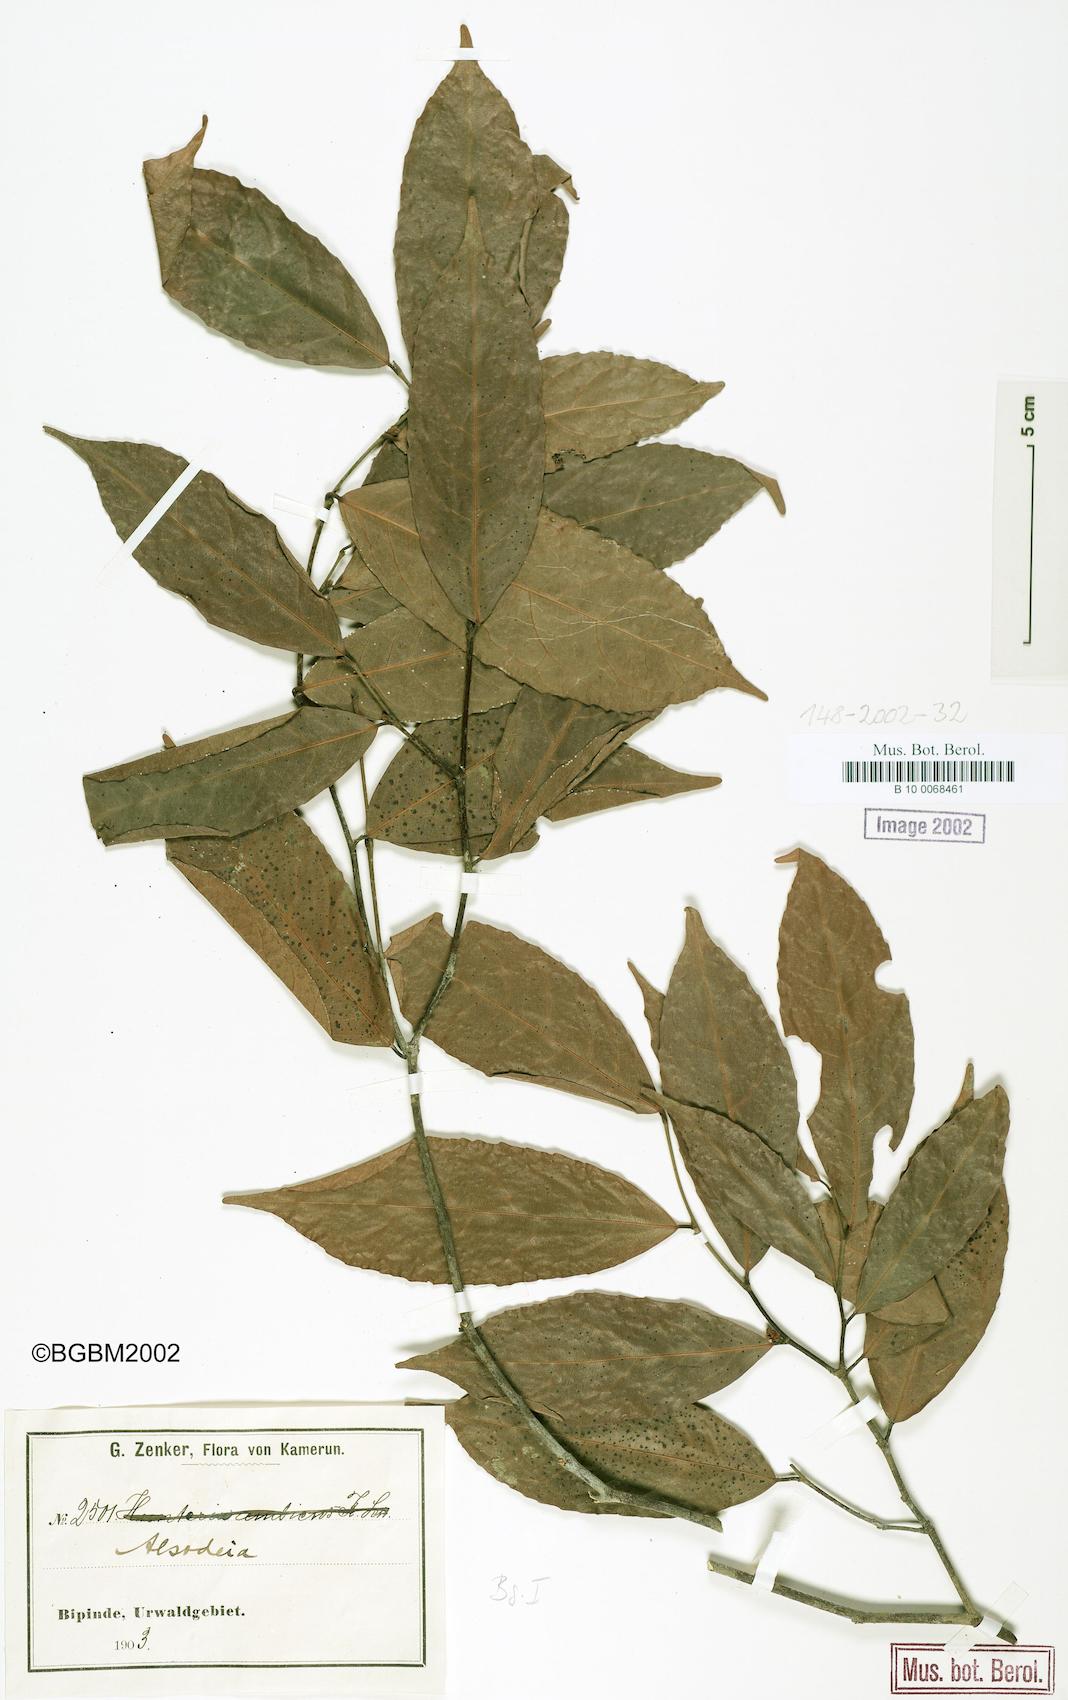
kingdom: Plantae
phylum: Tracheophyta
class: Magnoliopsida
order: Solanales
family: Solanaceae
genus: Alsodeia
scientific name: Alsodeia
